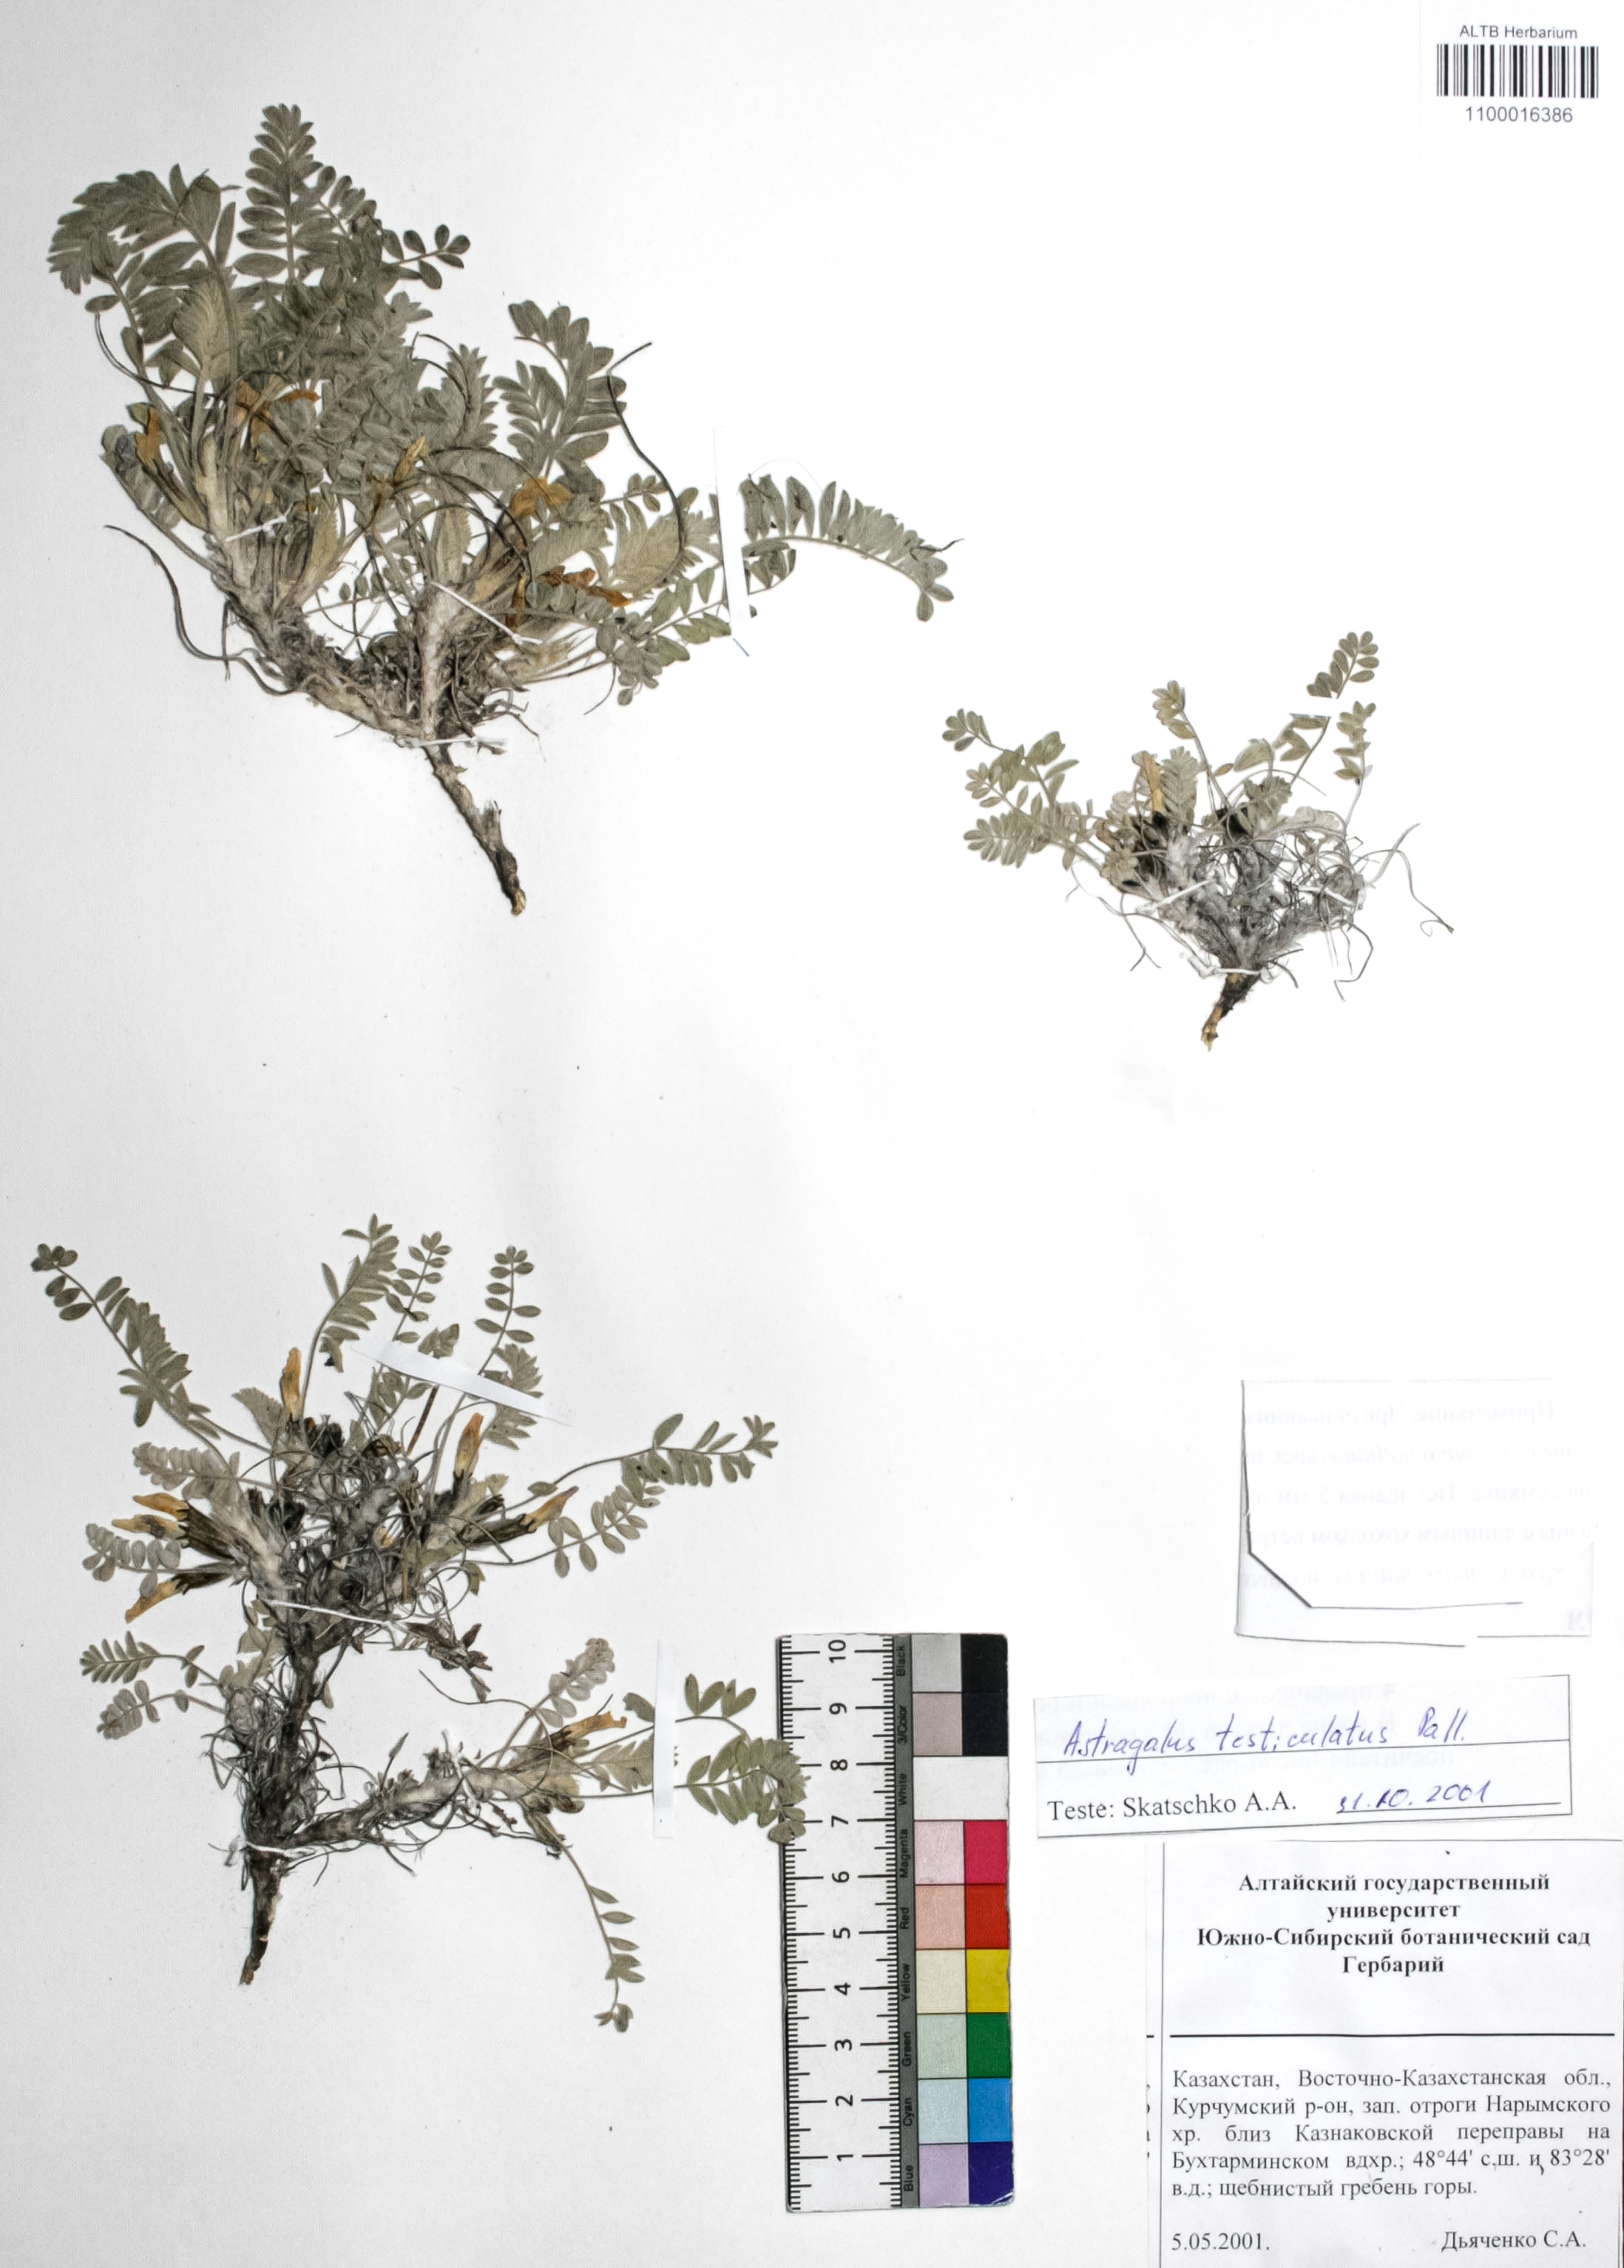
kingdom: Plantae
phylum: Tracheophyta
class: Magnoliopsida
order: Fabales
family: Fabaceae
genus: Astragalus
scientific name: Astragalus testiculatus
